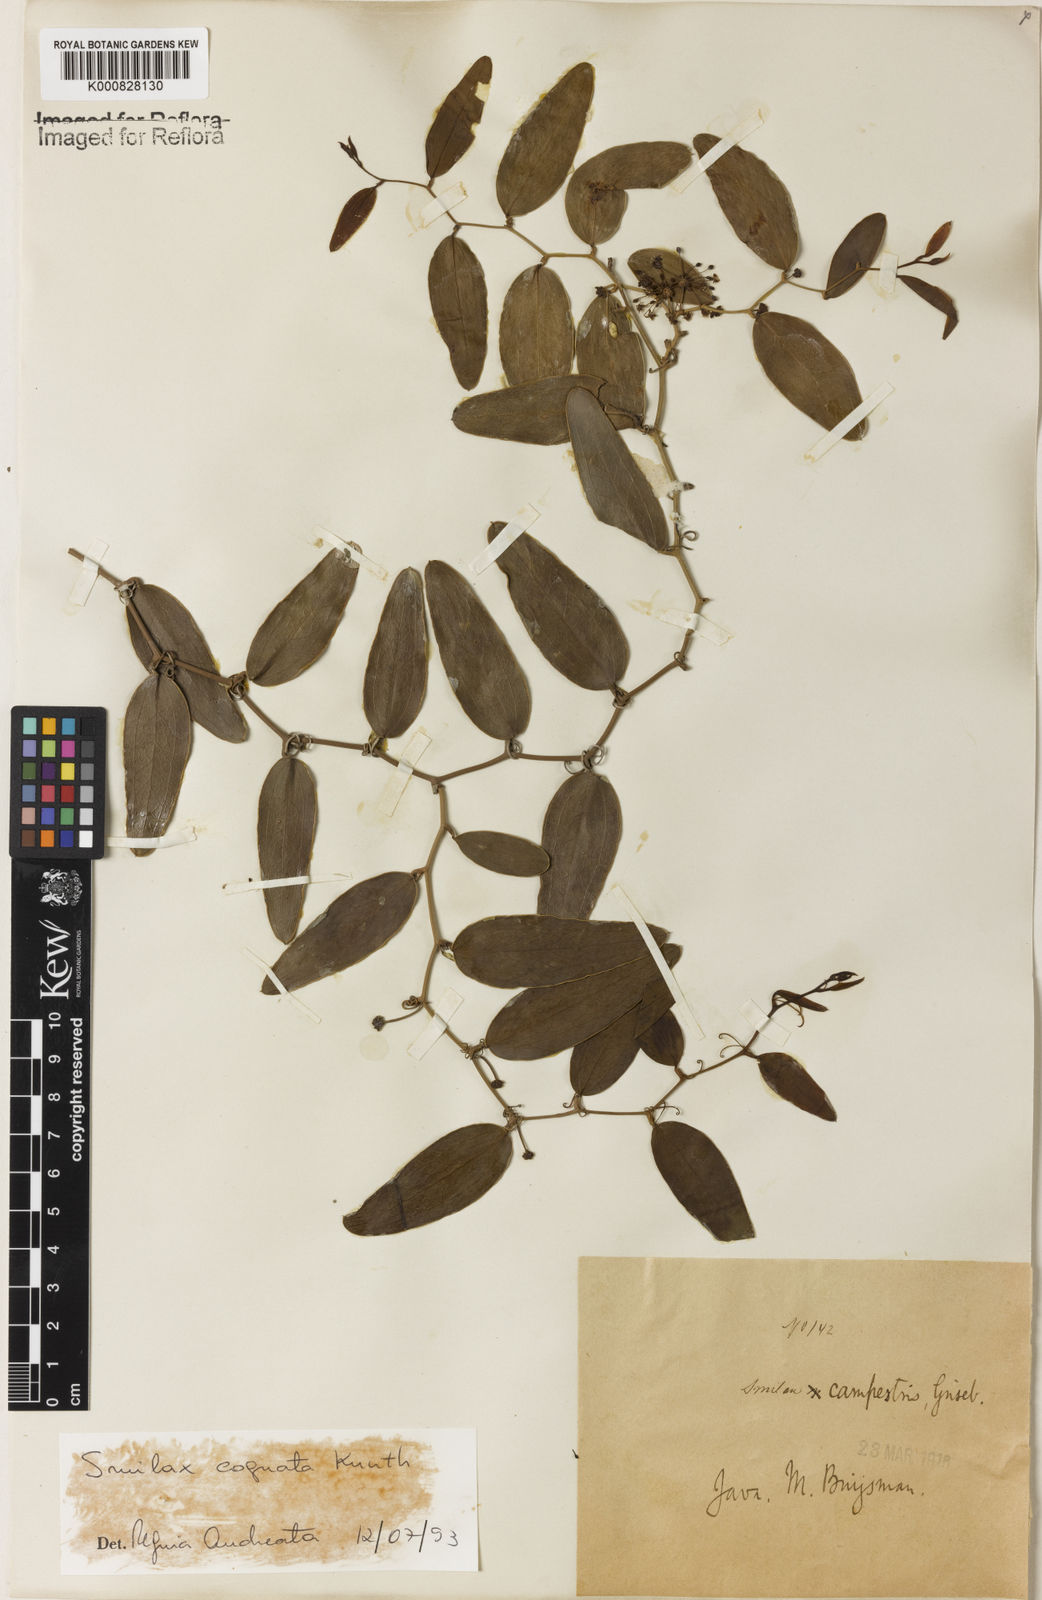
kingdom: Plantae
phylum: Tracheophyta
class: Liliopsida
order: Liliales
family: Smilacaceae
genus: Smilax
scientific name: Smilax cognata
